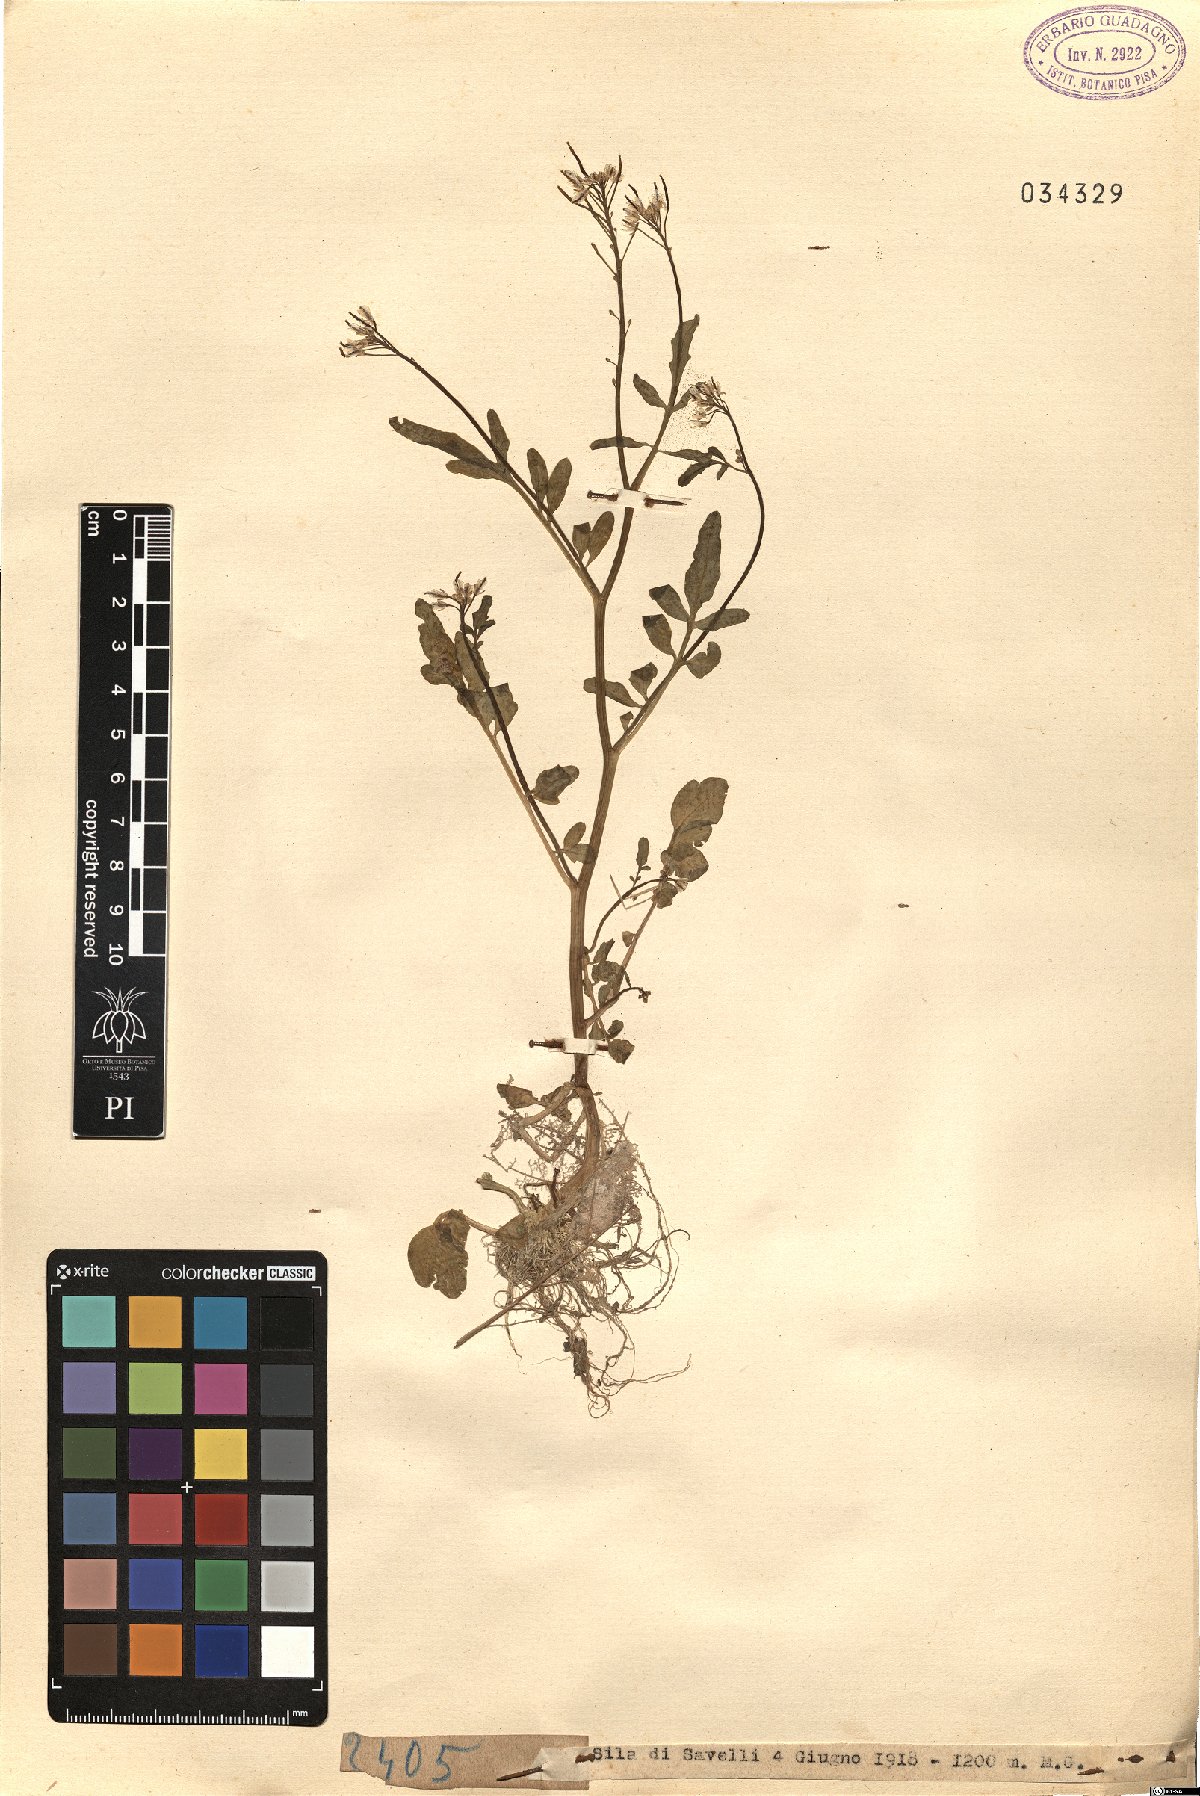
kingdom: Plantae
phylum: Tracheophyta
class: Magnoliopsida
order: Brassicales
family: Brassicaceae
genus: Cardamine
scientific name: Cardamine
